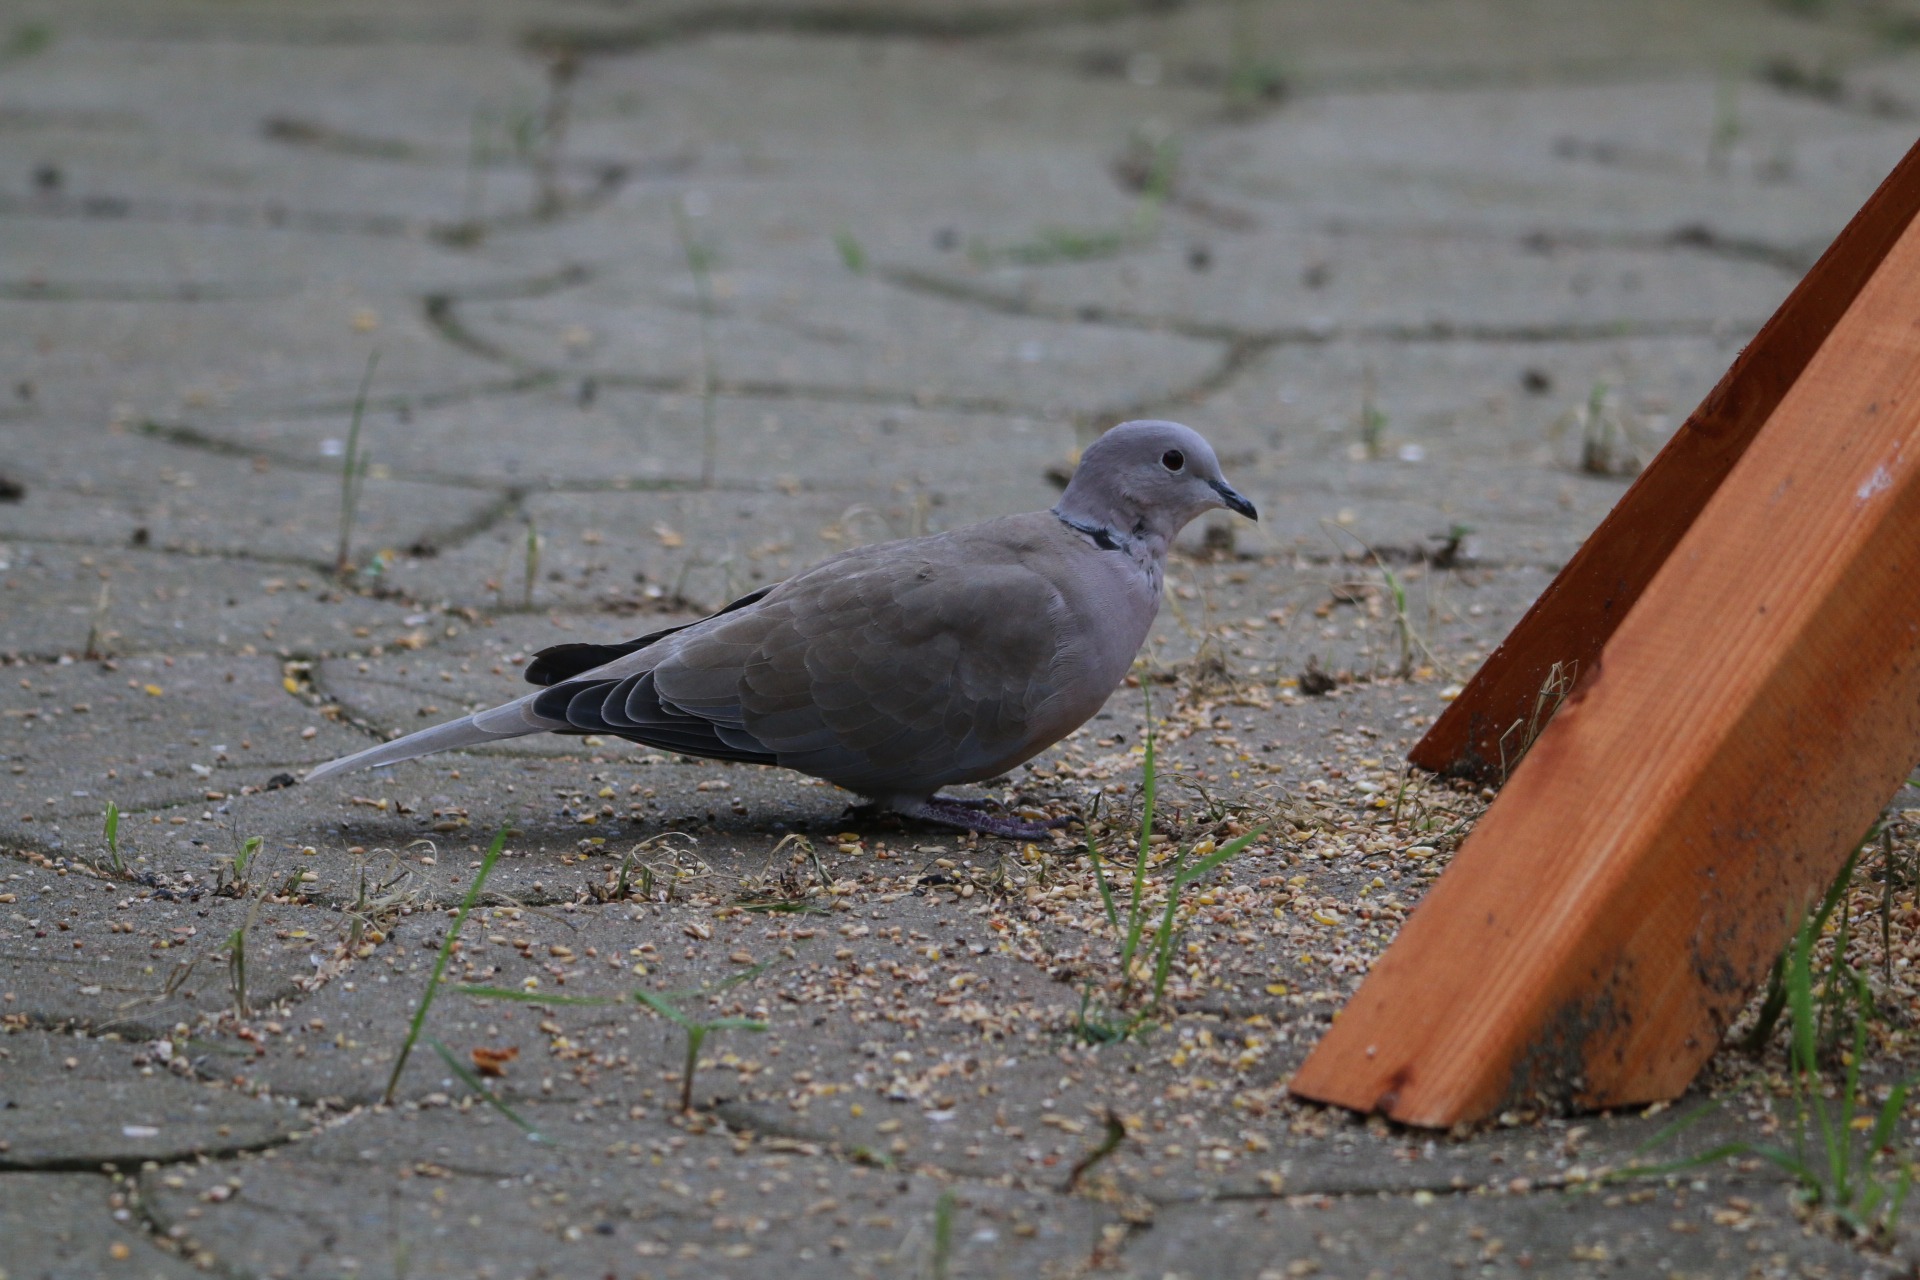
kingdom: Animalia
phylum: Chordata
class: Aves
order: Columbiformes
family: Columbidae
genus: Streptopelia
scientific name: Streptopelia decaocto
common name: Tyrkerdue
